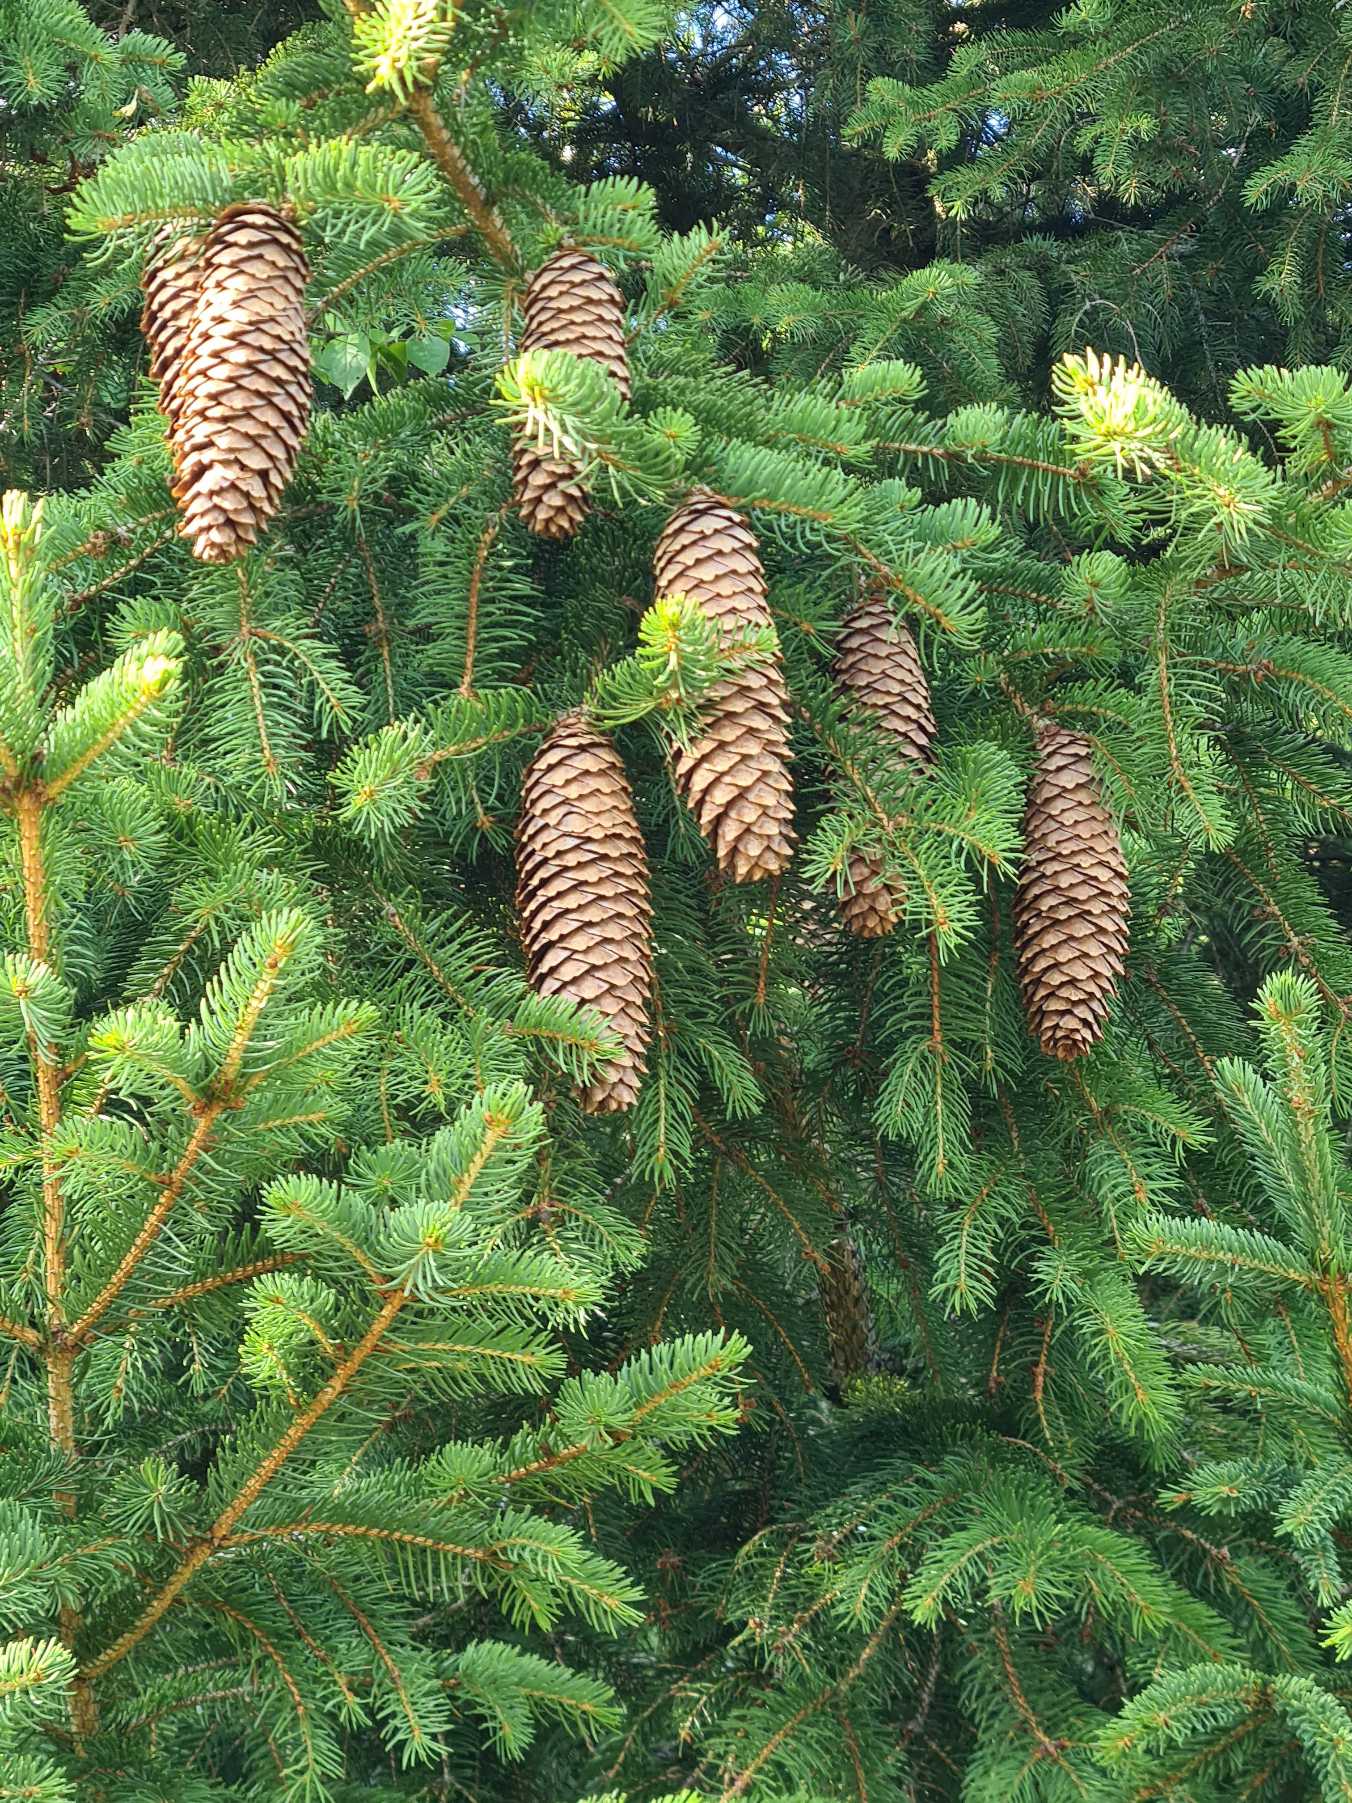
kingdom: Plantae
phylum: Tracheophyta
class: Pinopsida
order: Pinales
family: Pinaceae
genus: Picea
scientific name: Picea abies
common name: Rød-gran
